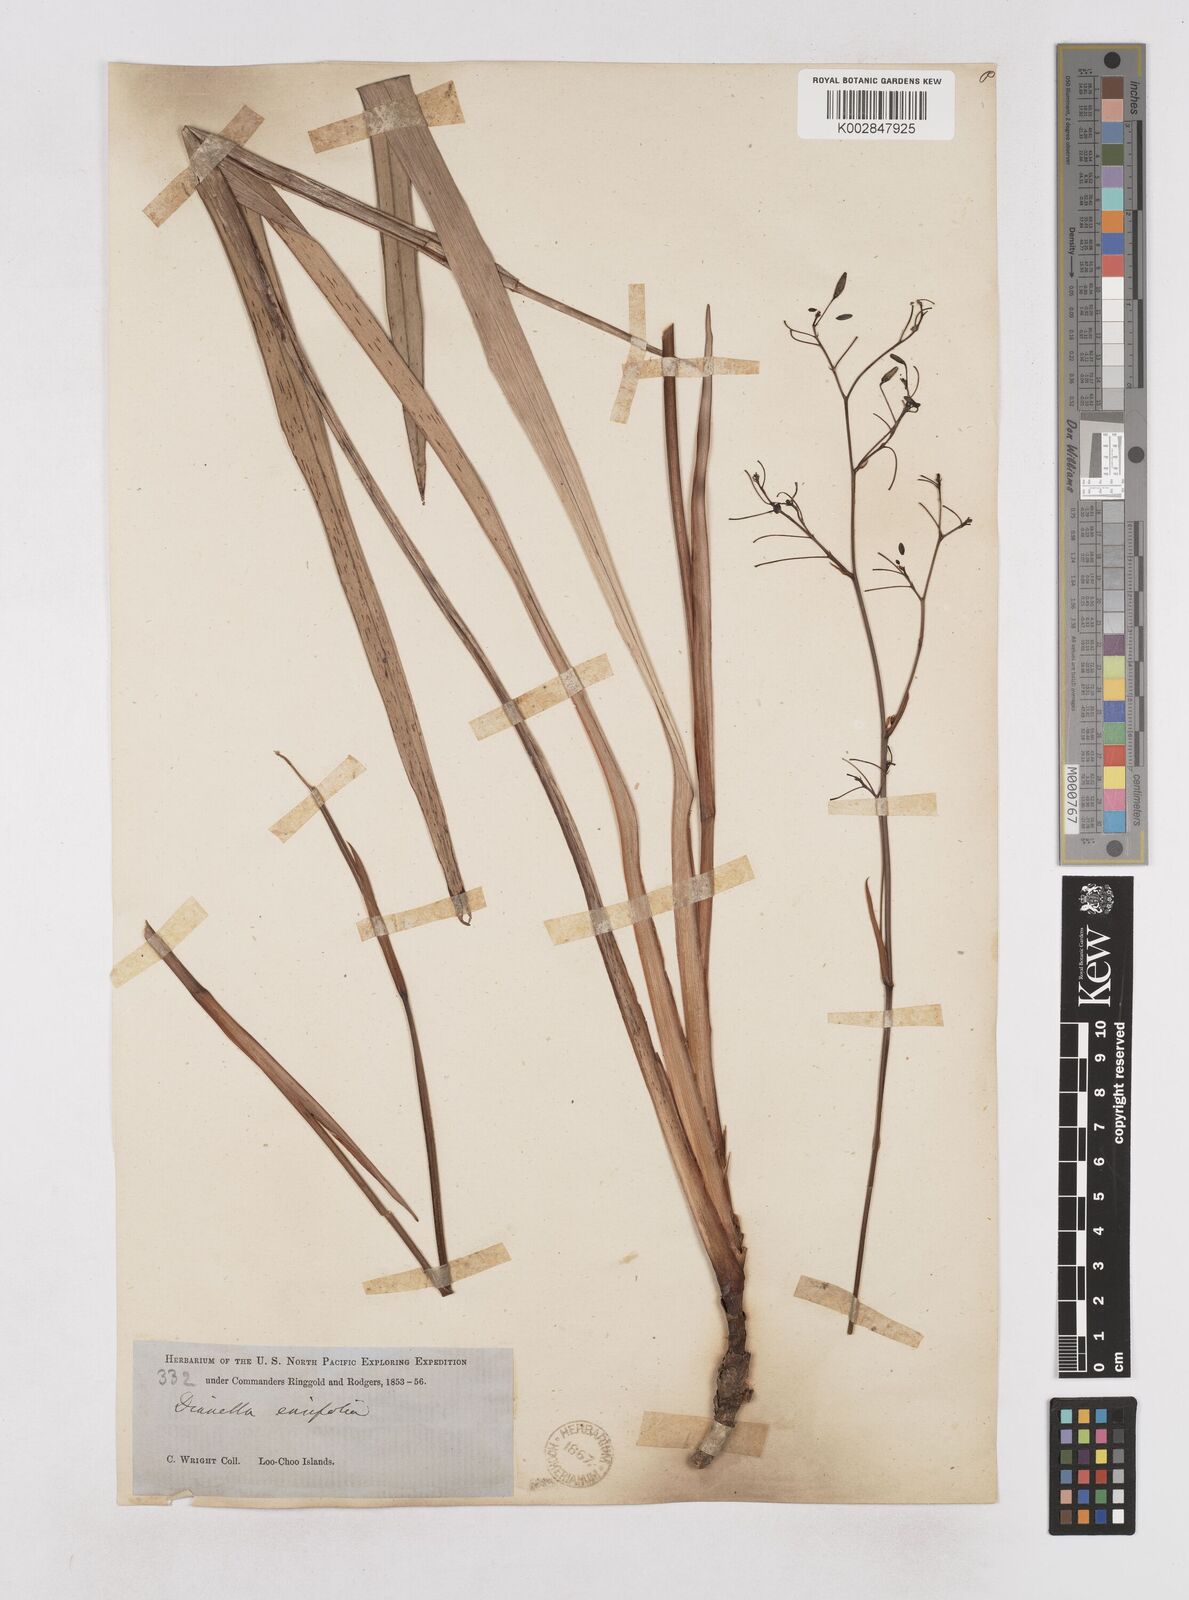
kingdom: Plantae
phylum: Tracheophyta
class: Liliopsida
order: Asparagales
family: Asphodelaceae
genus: Dianella
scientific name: Dianella ensifolia
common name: New zealand lilyplant
